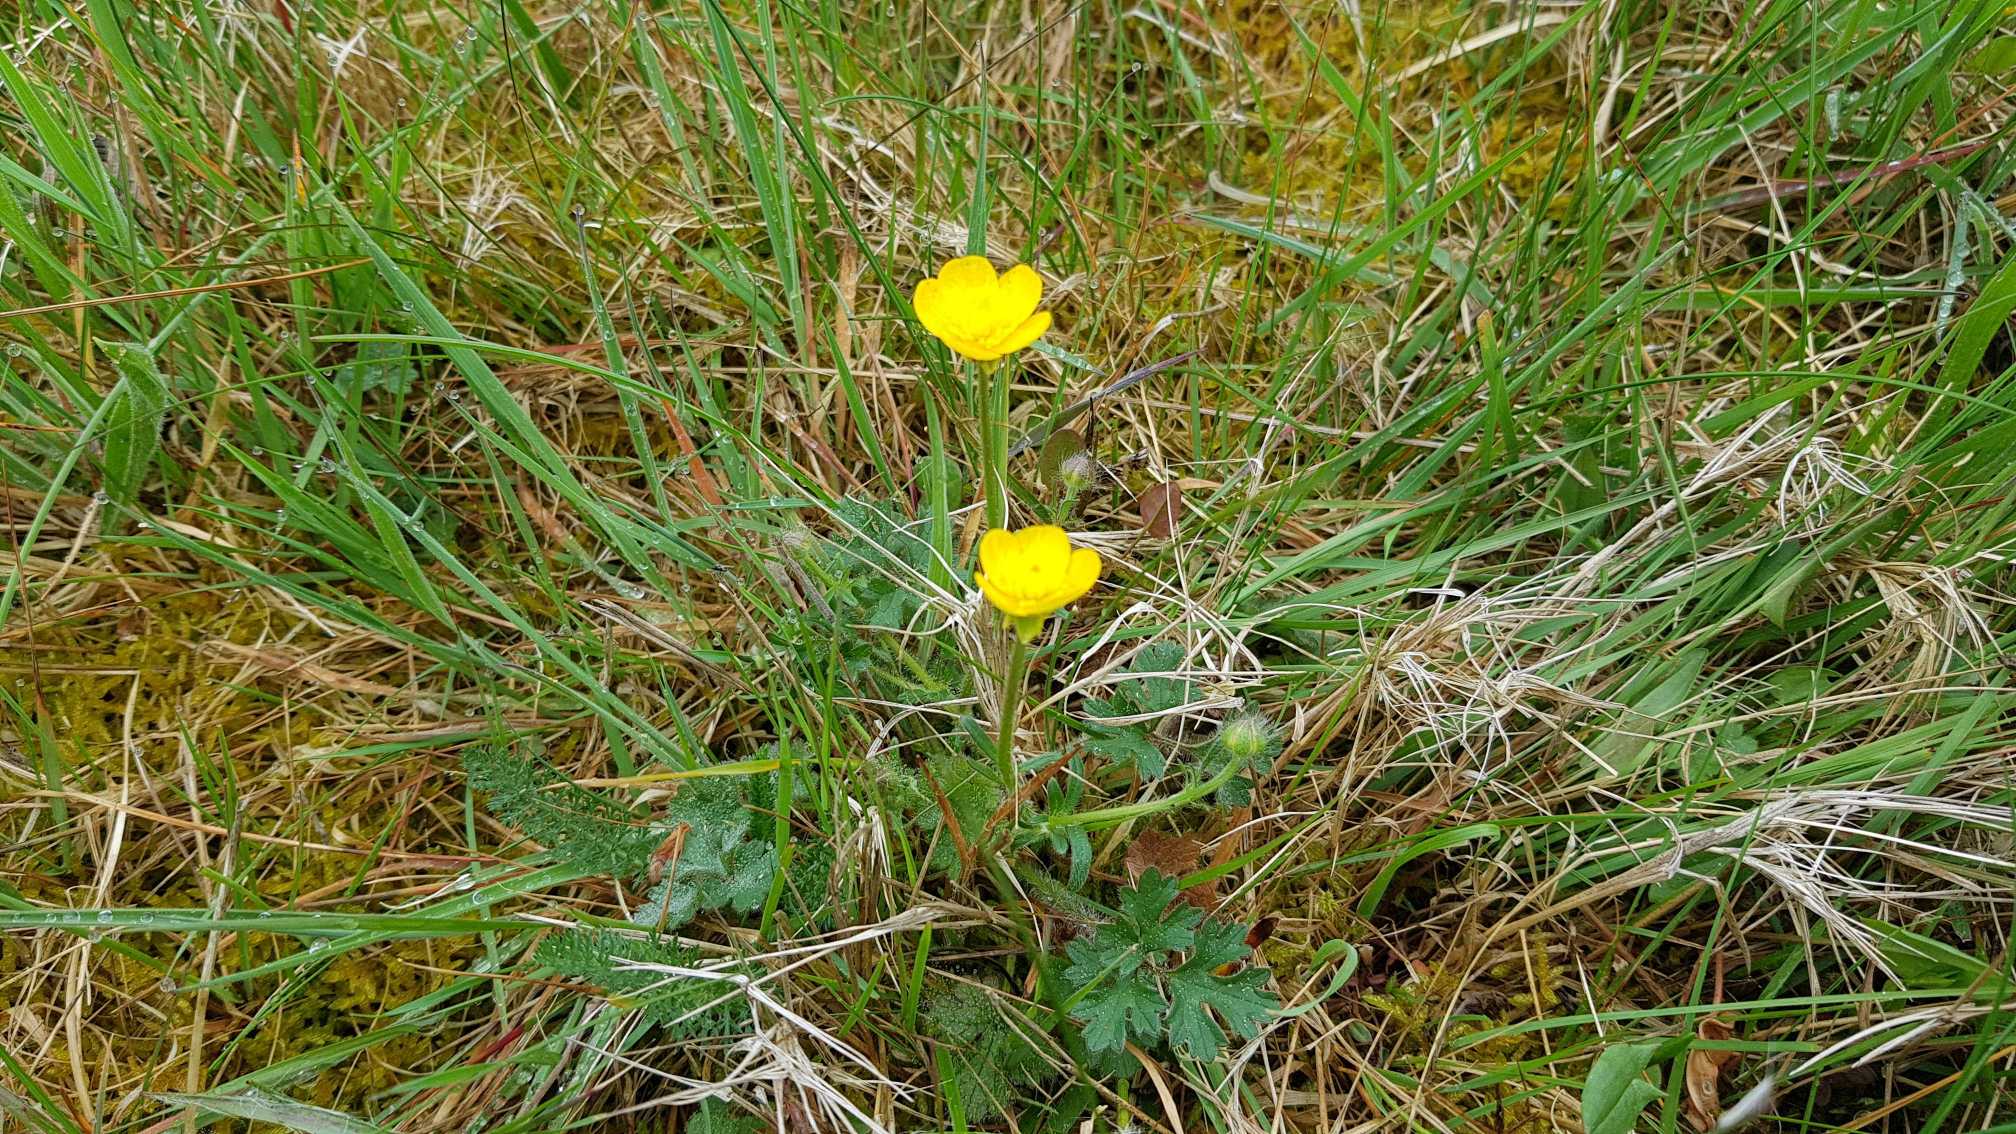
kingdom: Plantae
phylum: Tracheophyta
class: Magnoliopsida
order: Ranunculales
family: Ranunculaceae
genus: Ranunculus
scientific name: Ranunculus bulbosus
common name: Knold-ranunkel
